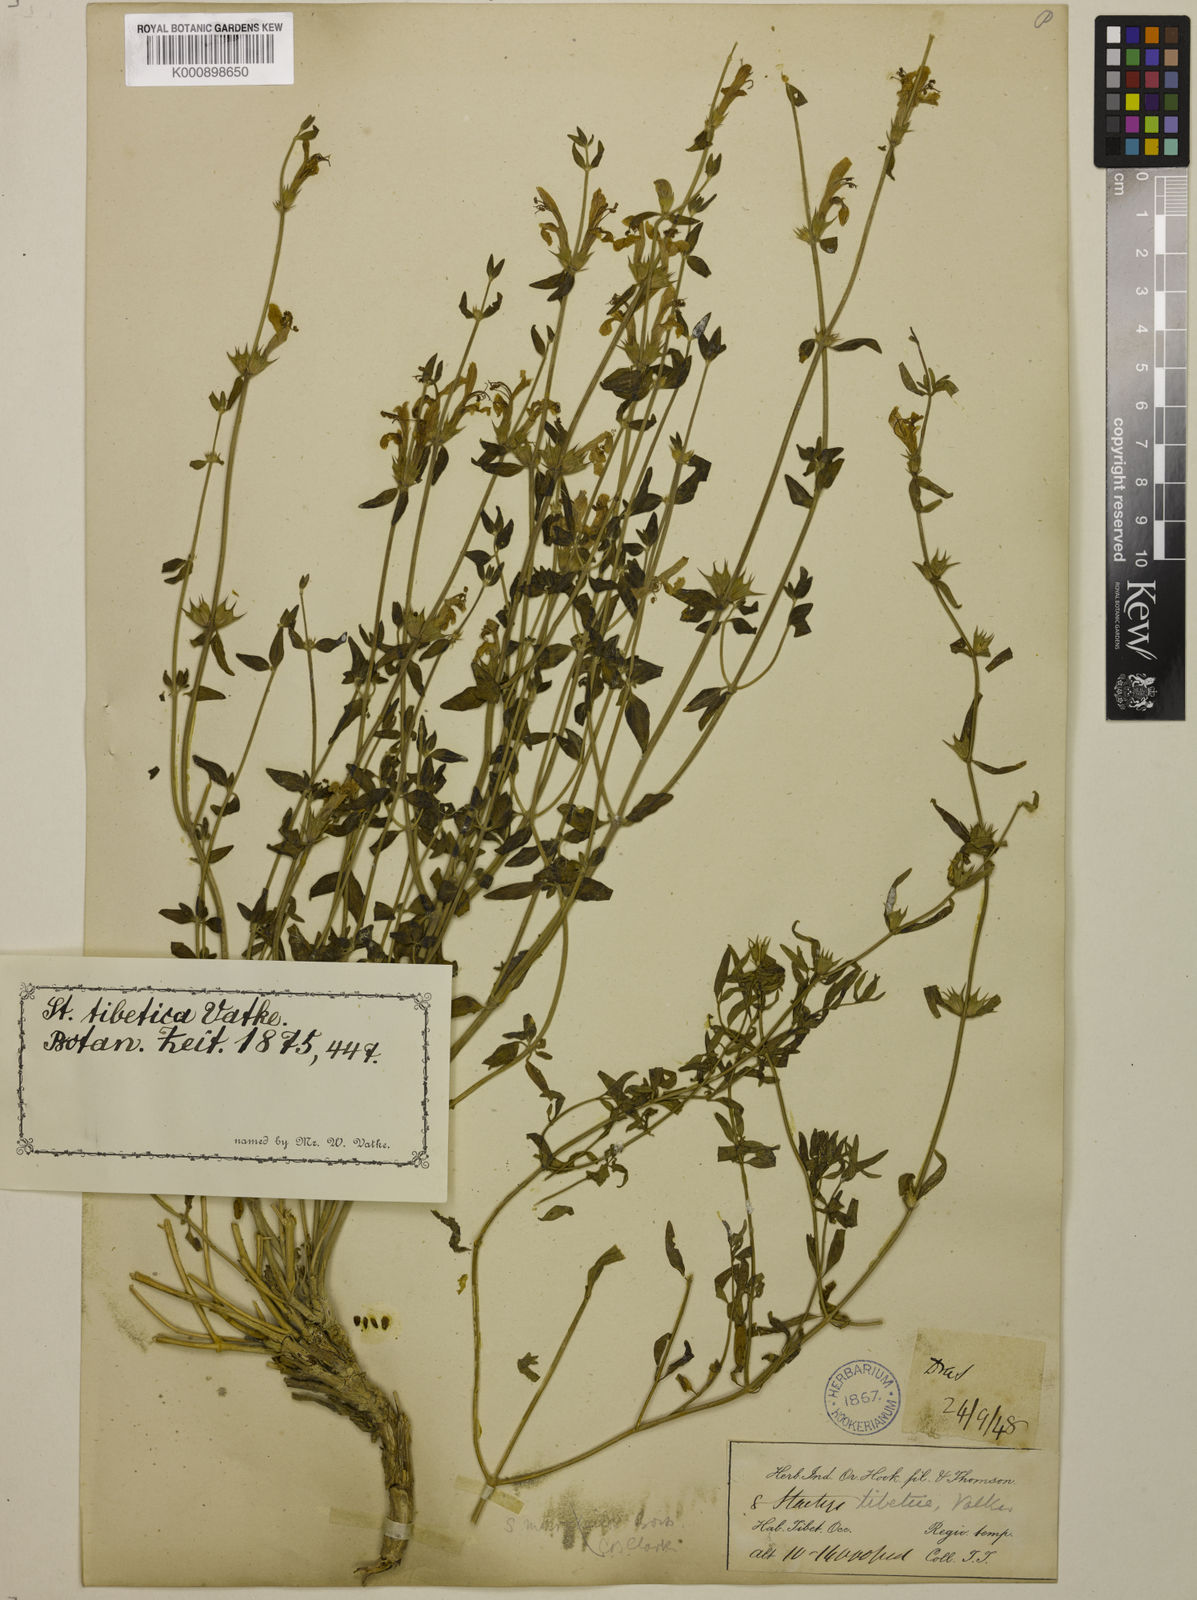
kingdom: Plantae
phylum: Tracheophyta
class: Magnoliopsida
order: Lamiales
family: Lamiaceae
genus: Eriophyton
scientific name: Eriophyton tibeticum
